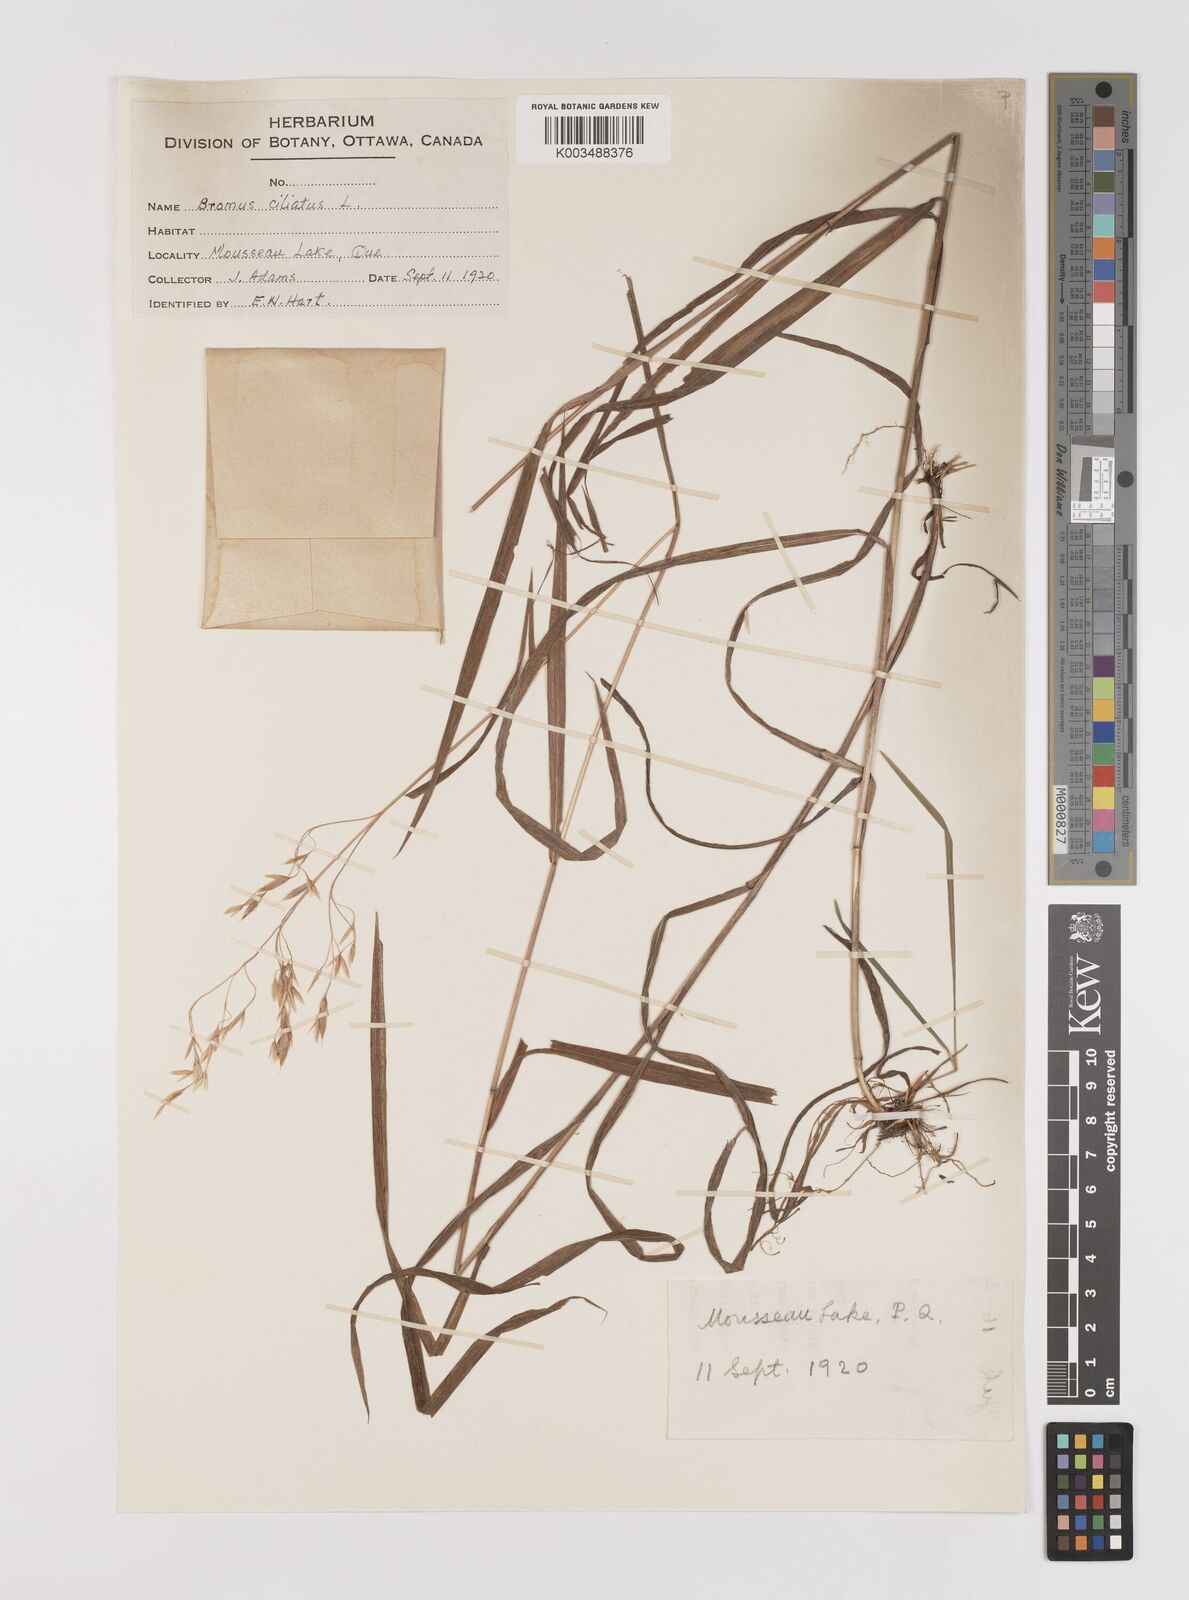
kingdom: Plantae
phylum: Tracheophyta
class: Liliopsida
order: Poales
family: Poaceae
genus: Bromus
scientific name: Bromus ciliatus
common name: Fringe brome
